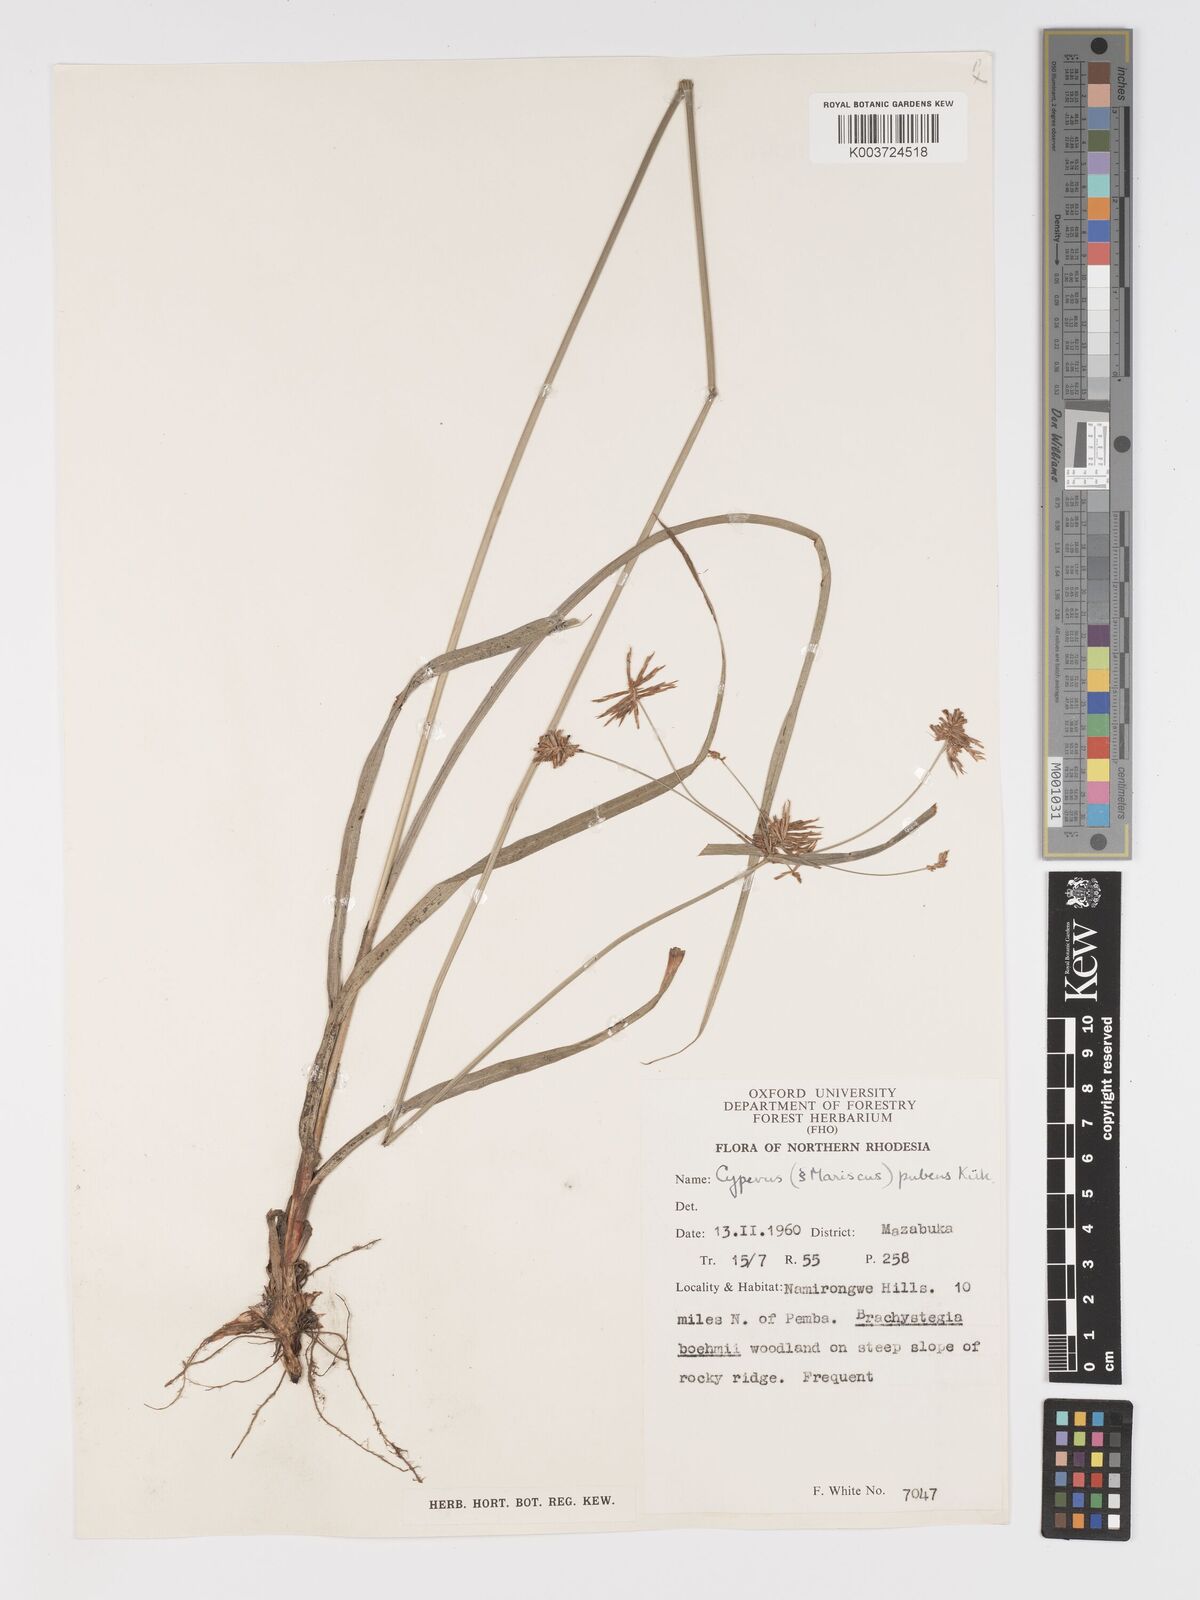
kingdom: Plantae
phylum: Tracheophyta
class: Liliopsida
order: Poales
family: Cyperaceae
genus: Cyperus
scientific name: Cyperus pubens
